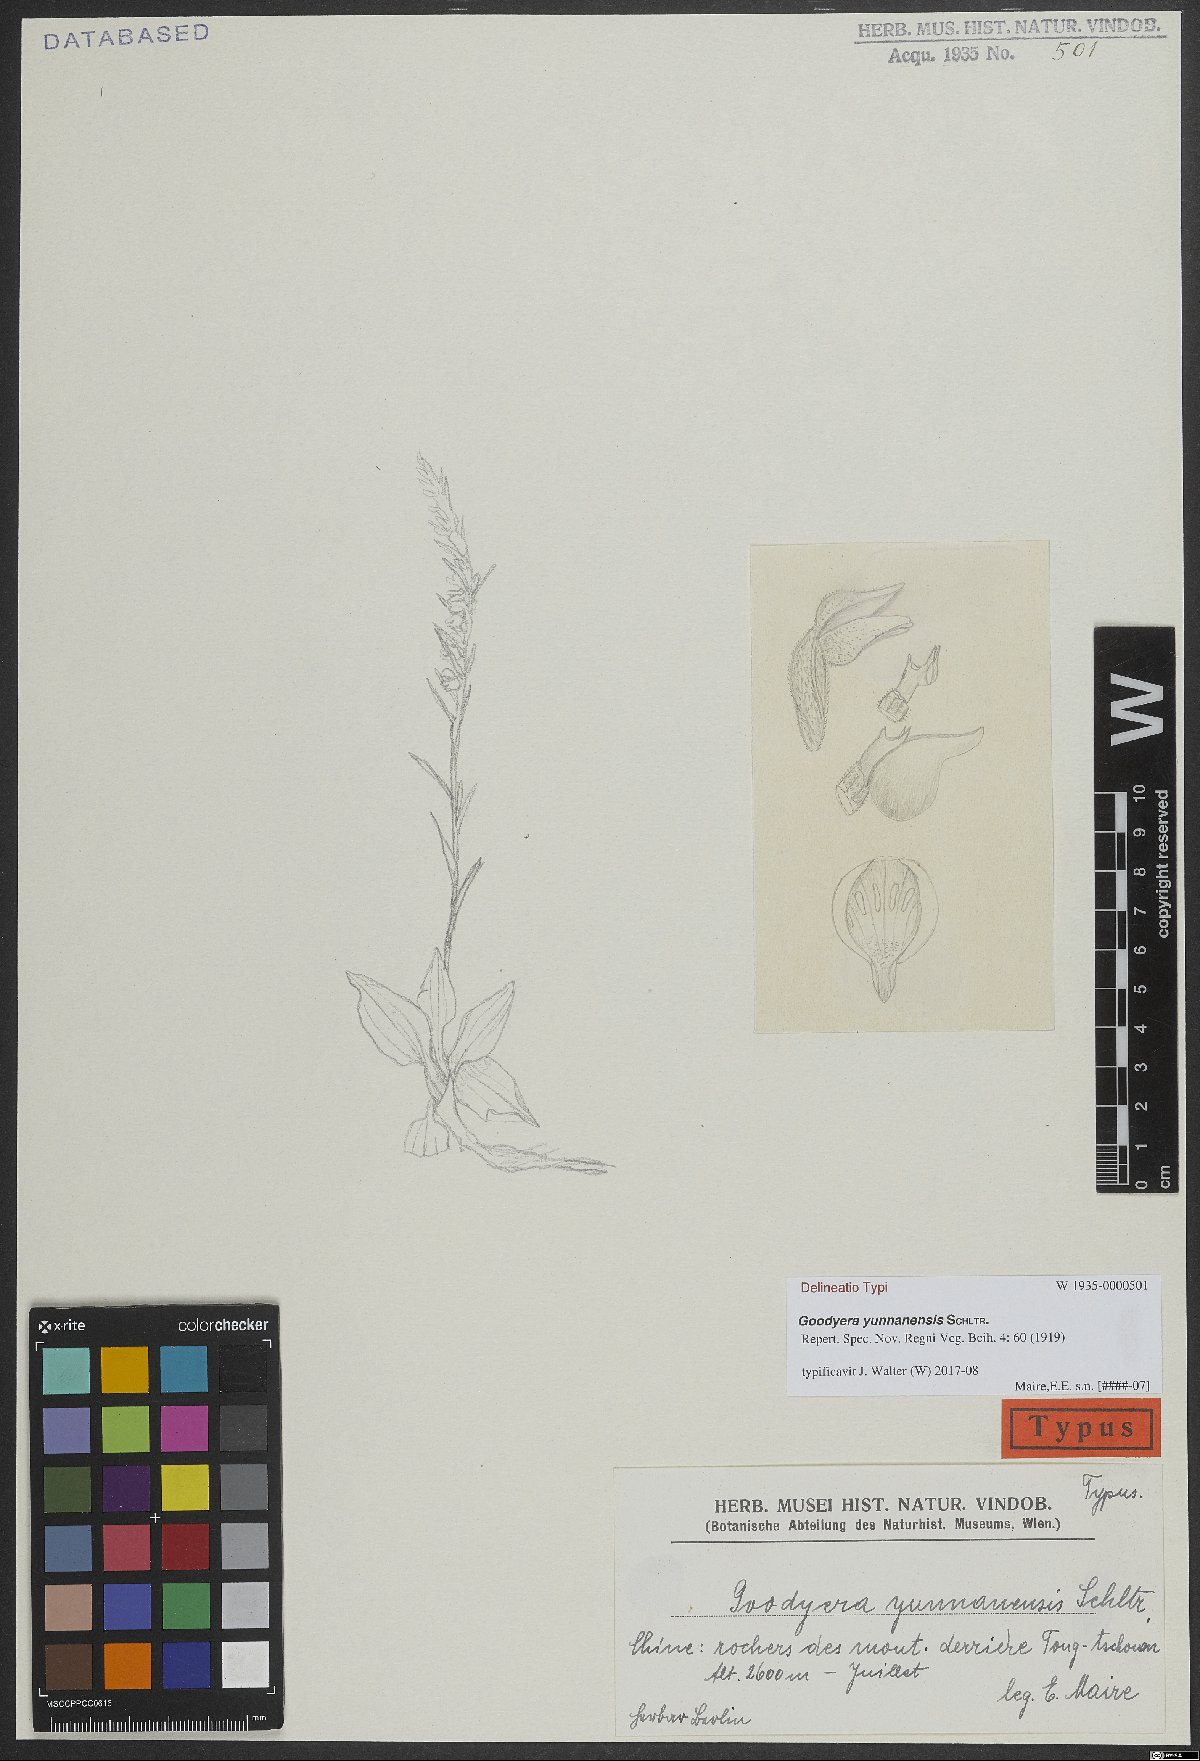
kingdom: Plantae
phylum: Tracheophyta
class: Liliopsida
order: Asparagales
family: Orchidaceae
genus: Goodyera
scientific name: Goodyera yunnanensis
